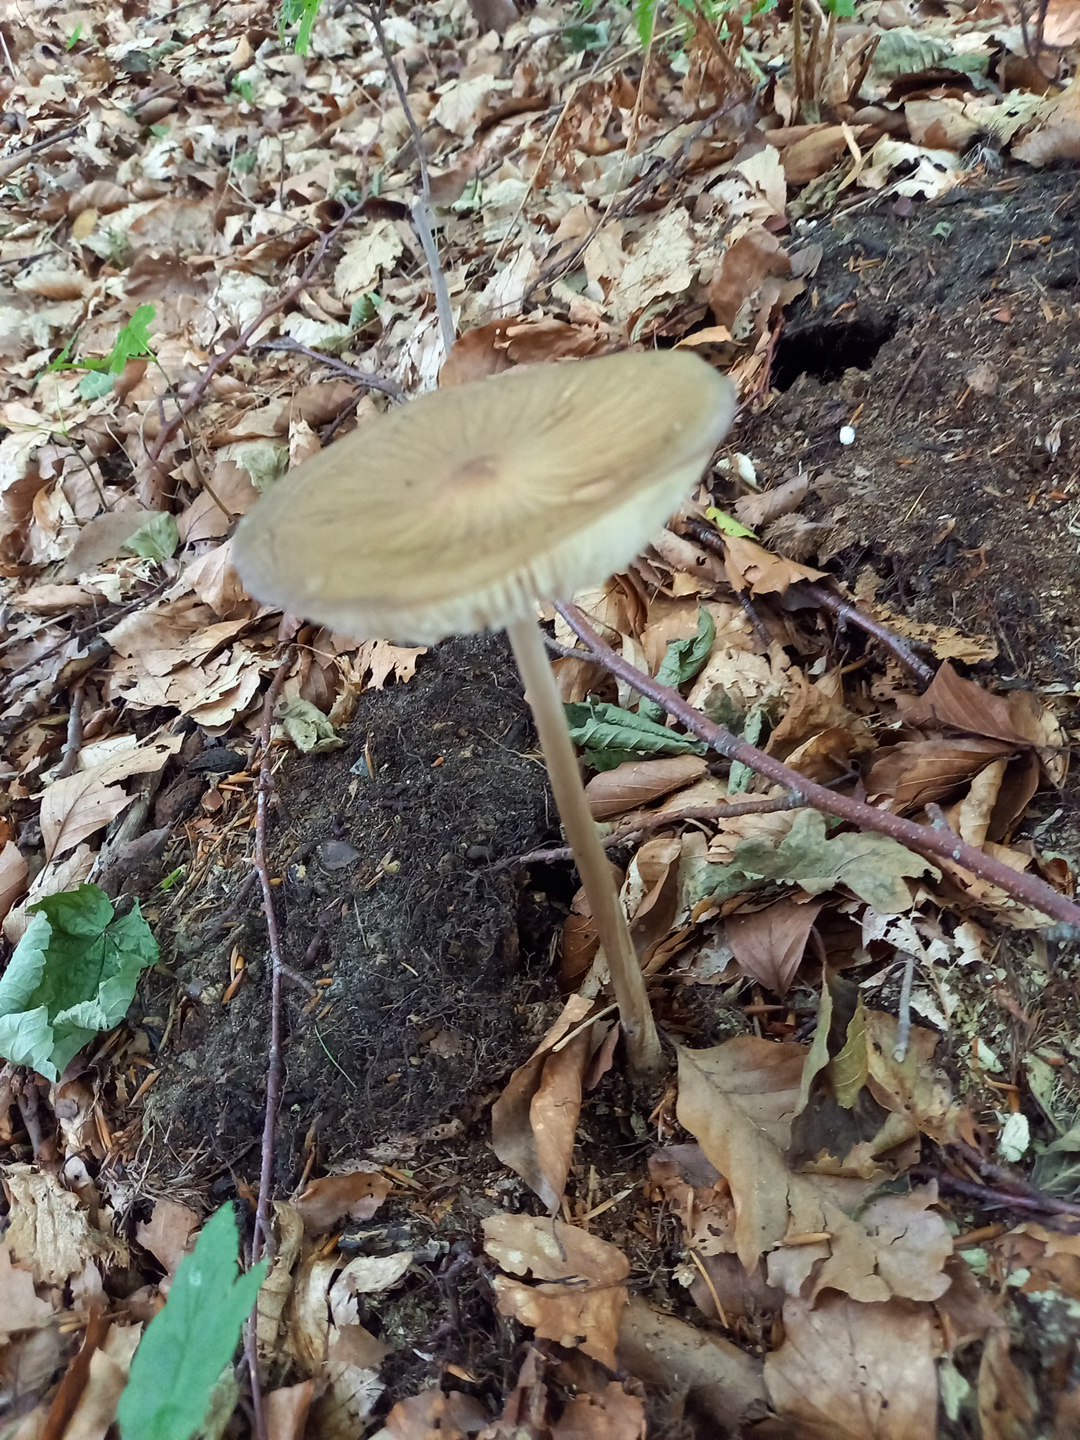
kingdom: Fungi
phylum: Basidiomycota
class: Agaricomycetes
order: Agaricales
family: Physalacriaceae
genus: Hymenopellis
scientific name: Hymenopellis radicata
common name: almindelig pælerodshat
